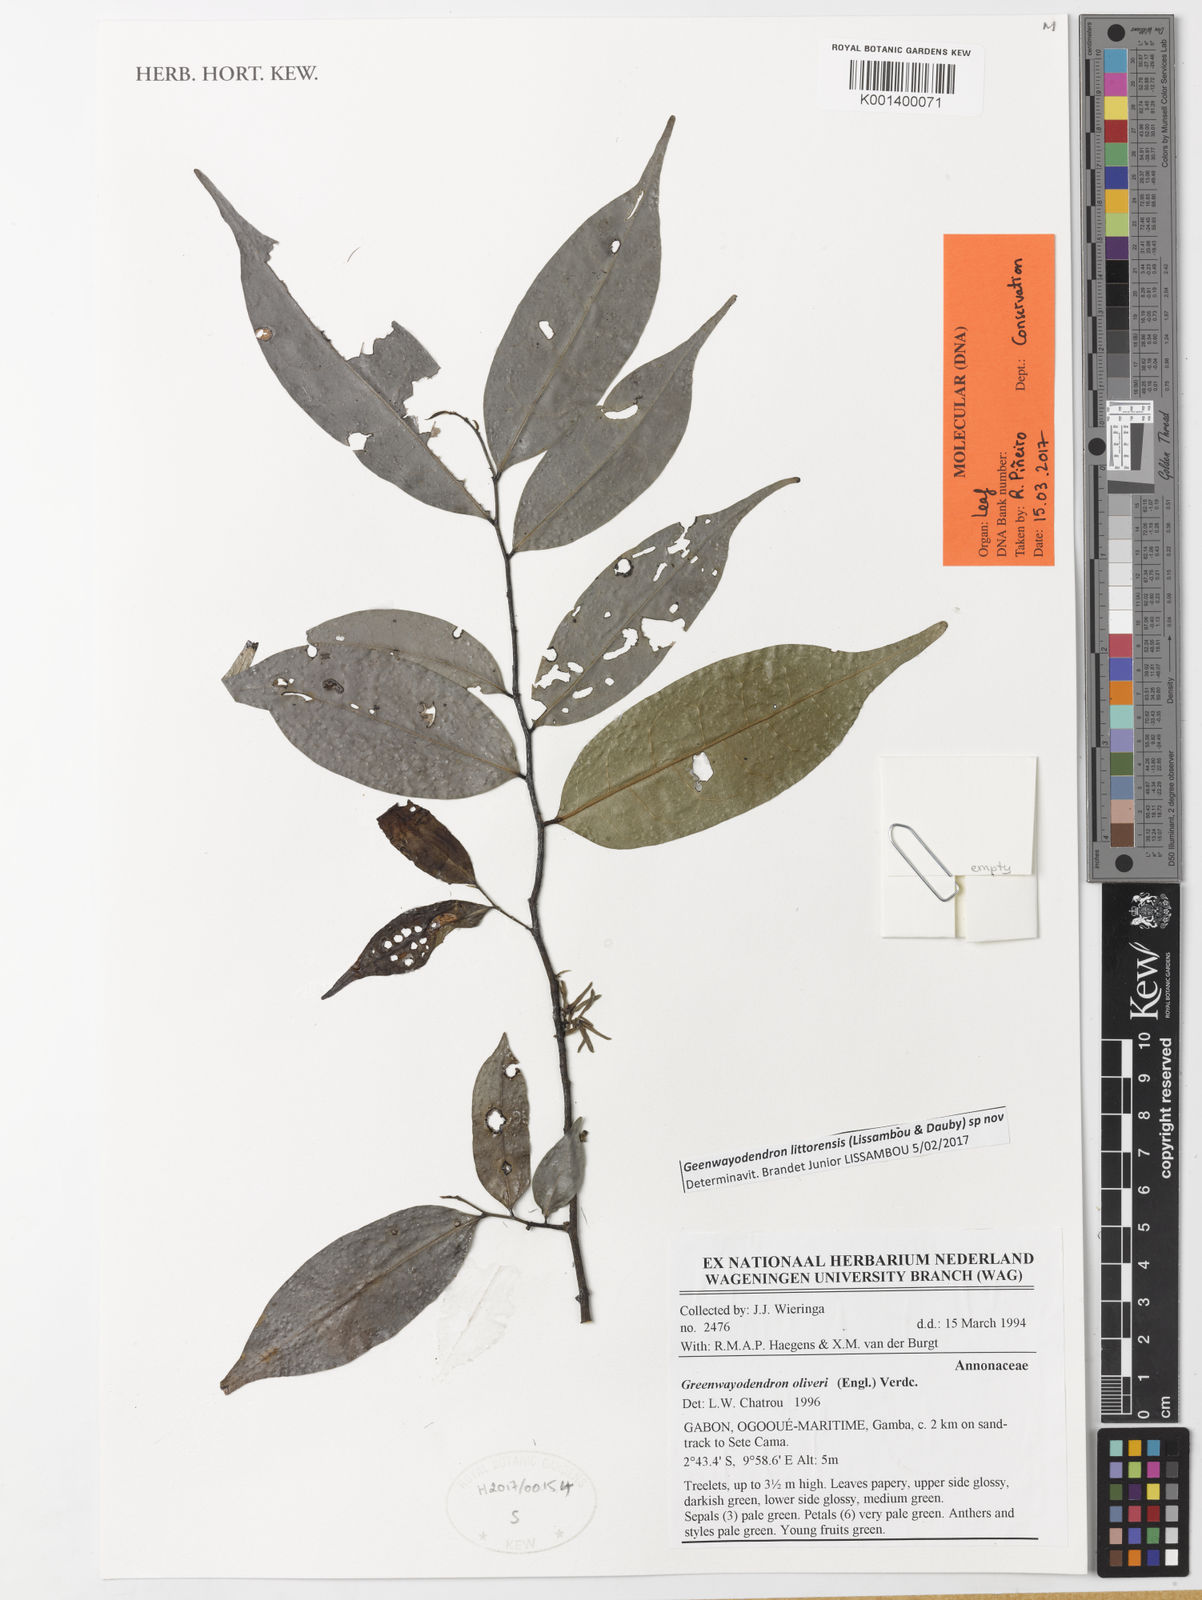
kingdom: Plantae
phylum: Tracheophyta
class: Magnoliopsida
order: Magnoliales
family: Annonaceae
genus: Greenwayodendron
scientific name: Greenwayodendron littorale
